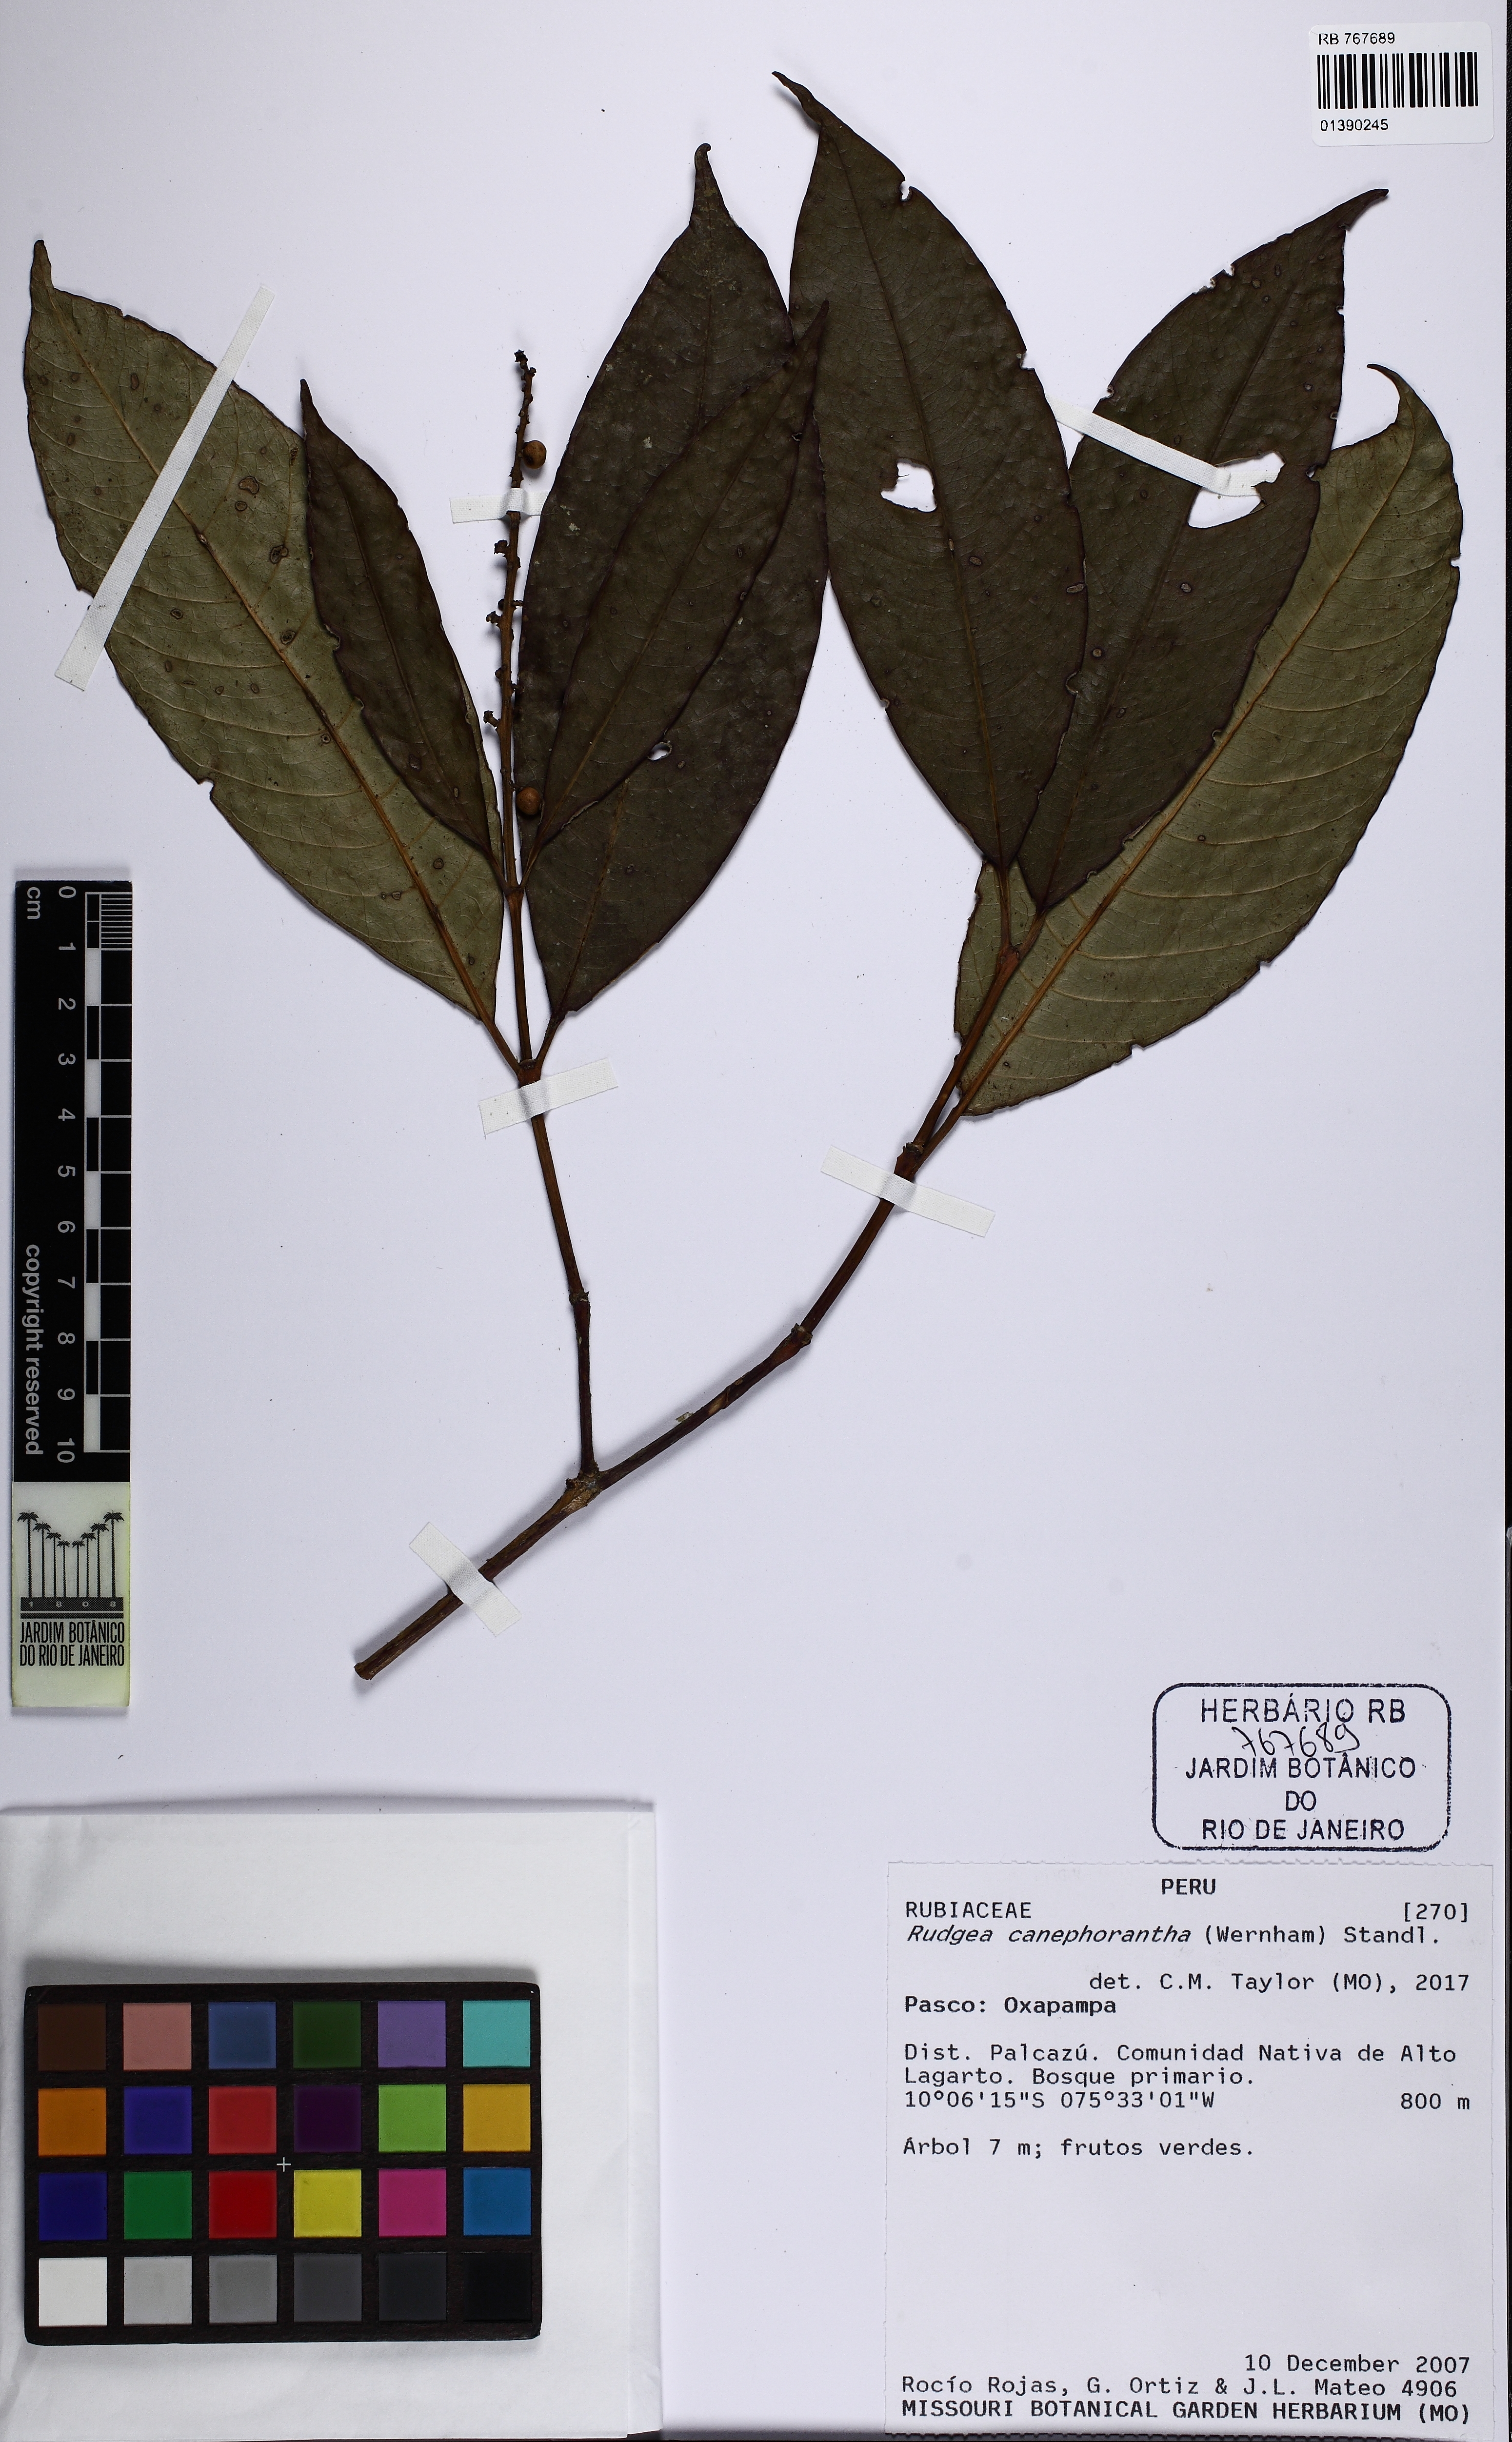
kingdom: Plantae
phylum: Tracheophyta
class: Magnoliopsida
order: Gentianales
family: Rubiaceae
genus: Rudgea
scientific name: Rudgea canephorantha
